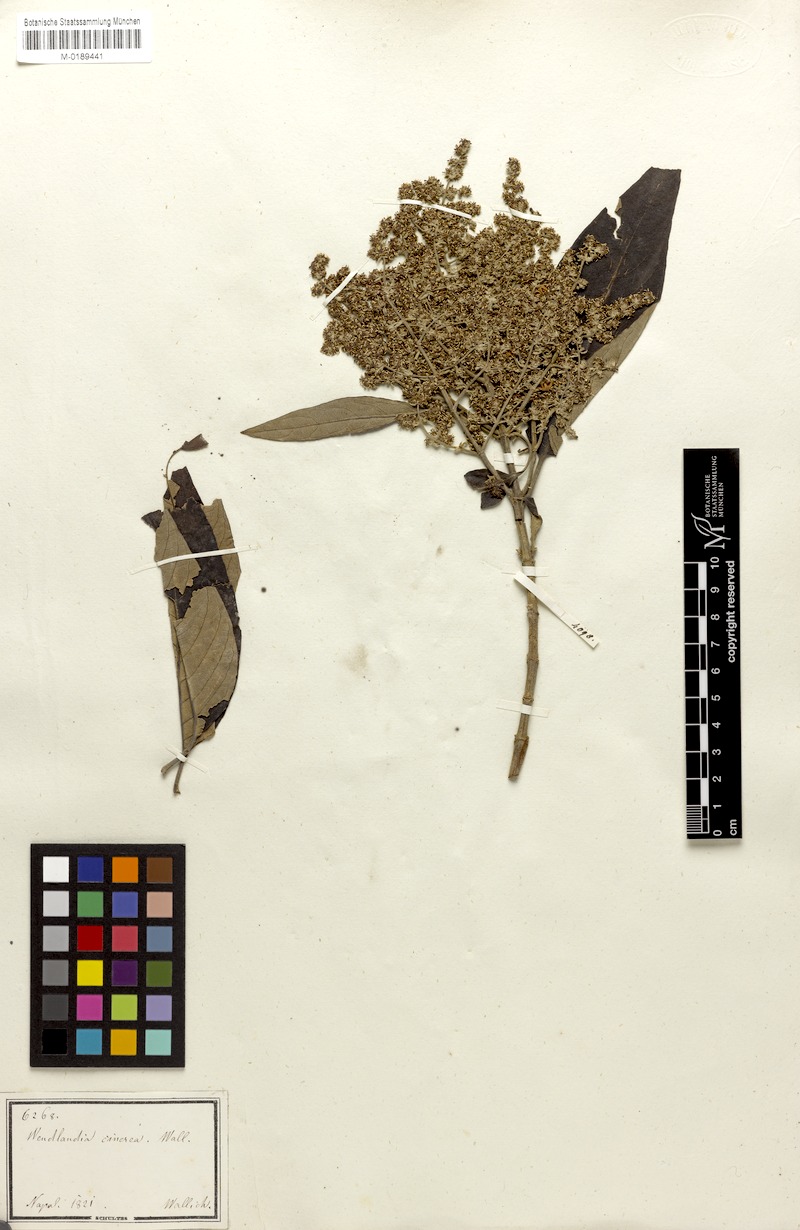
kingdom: Plantae
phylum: Tracheophyta
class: Magnoliopsida
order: Gentianales
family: Rubiaceae
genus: Wendlandia
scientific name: Wendlandia heynei
